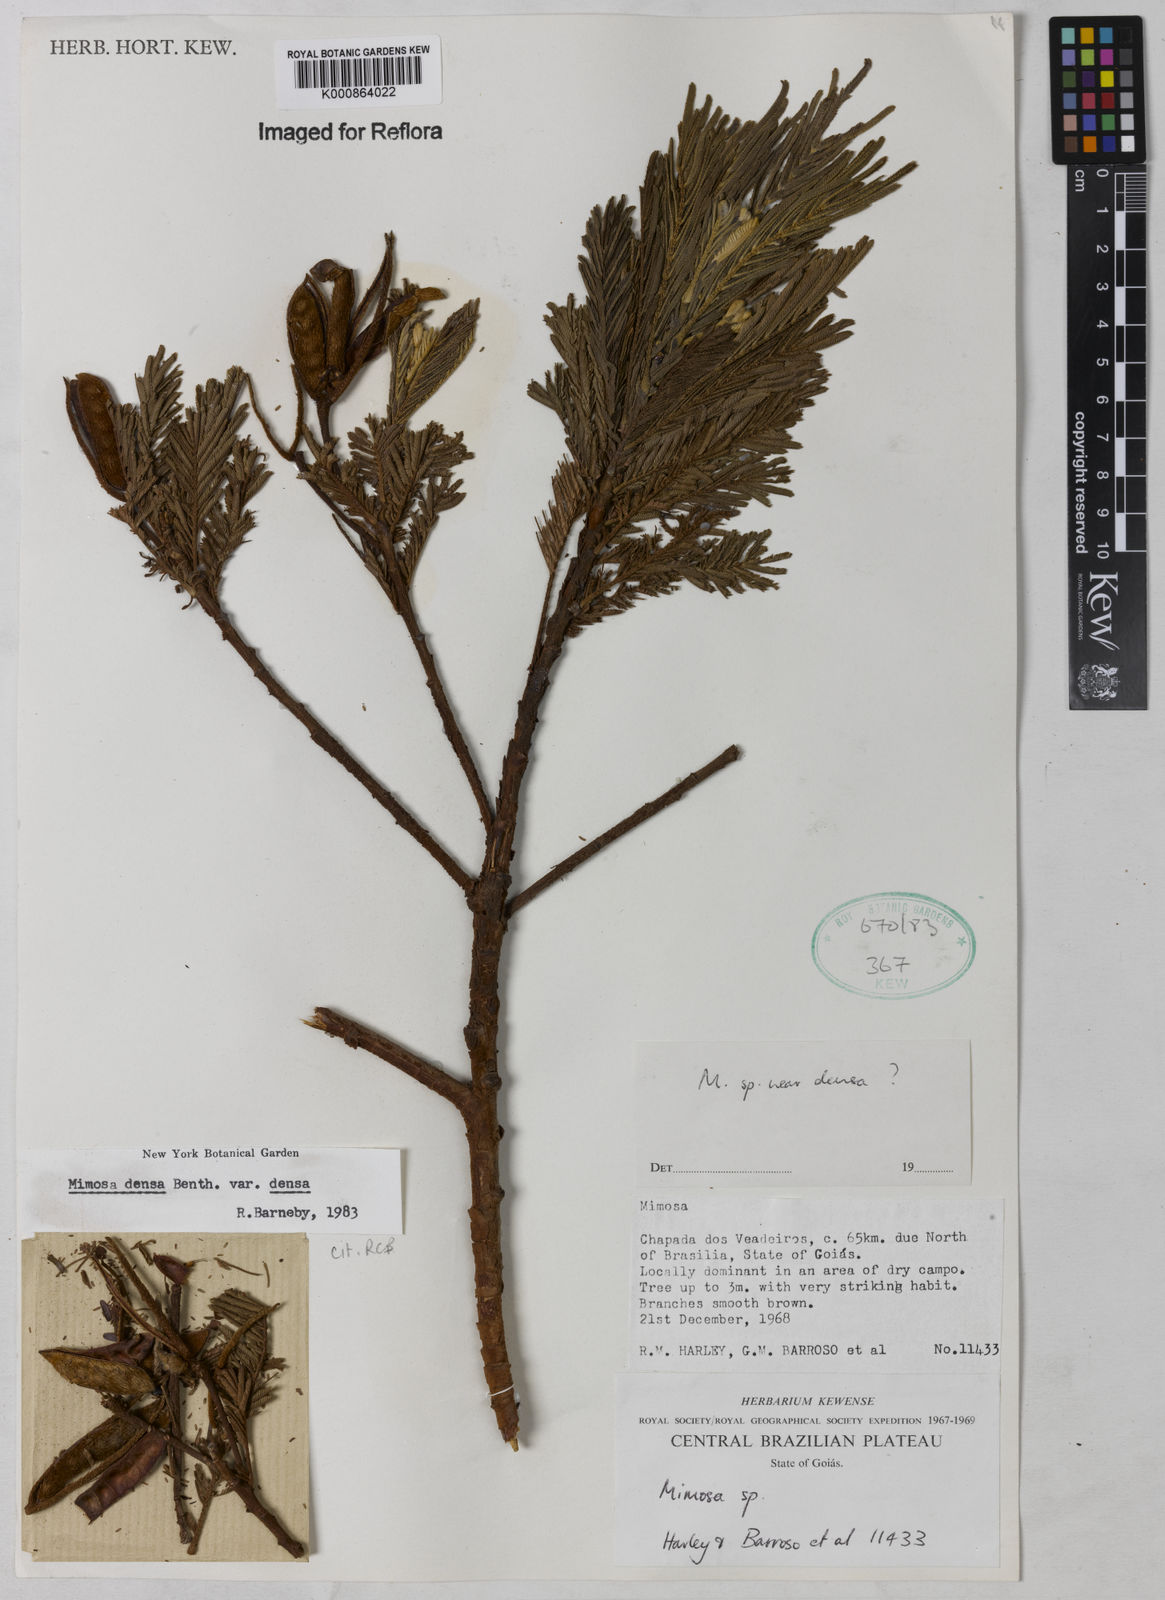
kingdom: Plantae
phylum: Tracheophyta
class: Magnoliopsida
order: Fabales
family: Fabaceae
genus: Mimosa
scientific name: Mimosa densa
